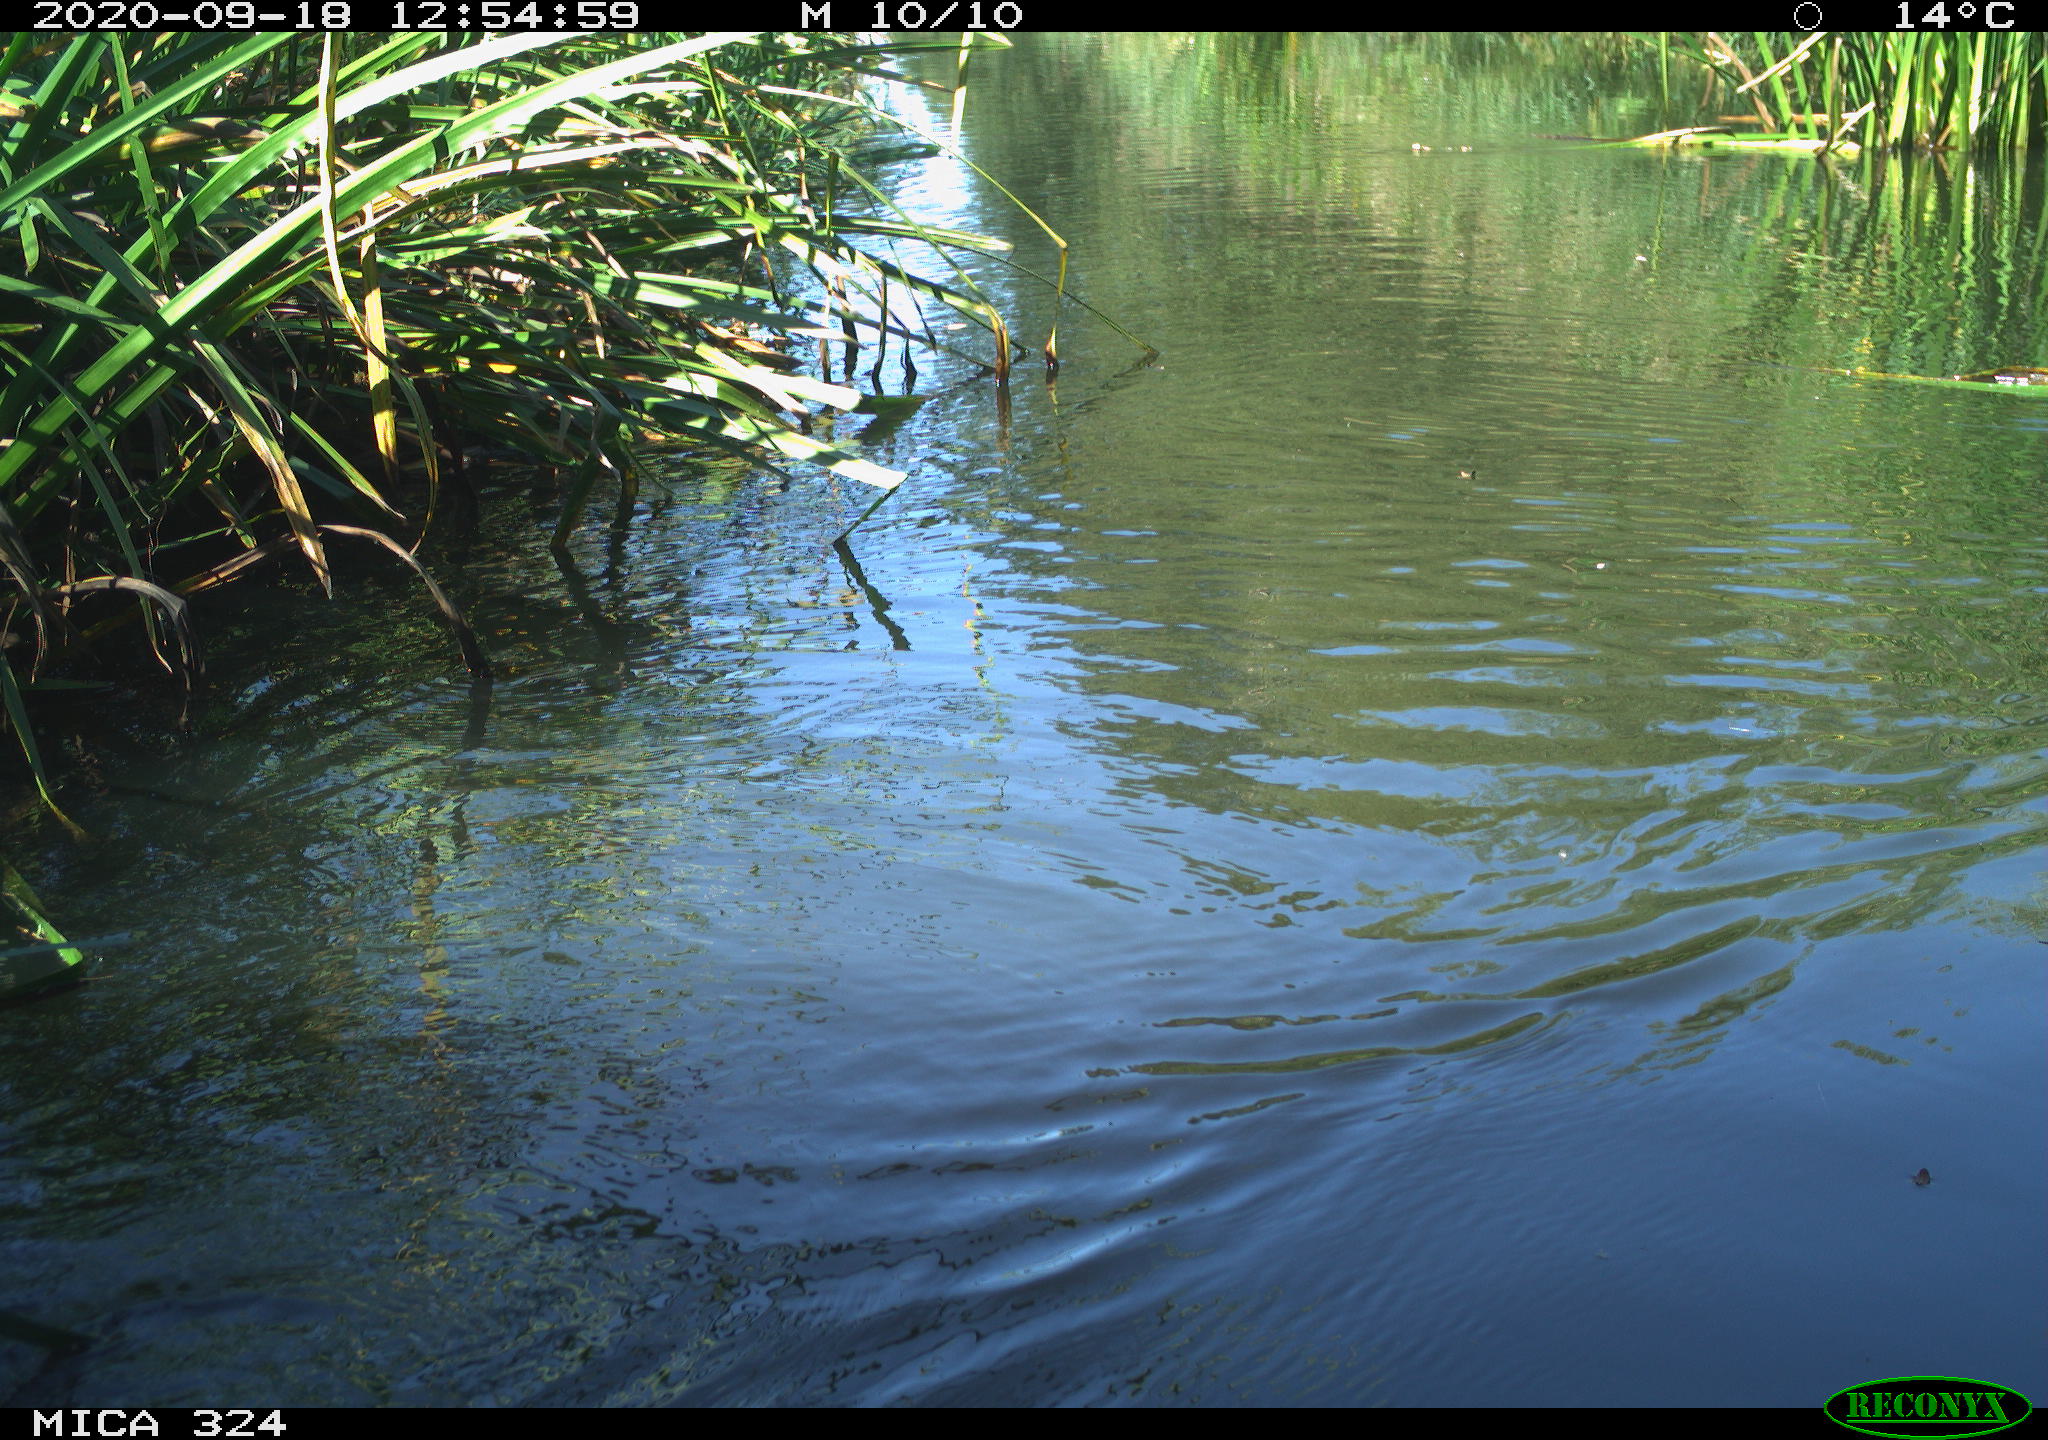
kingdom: Animalia
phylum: Chordata
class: Mammalia
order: Rodentia
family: Cricetidae
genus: Ondatra
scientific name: Ondatra zibethicus
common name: Muskrat
